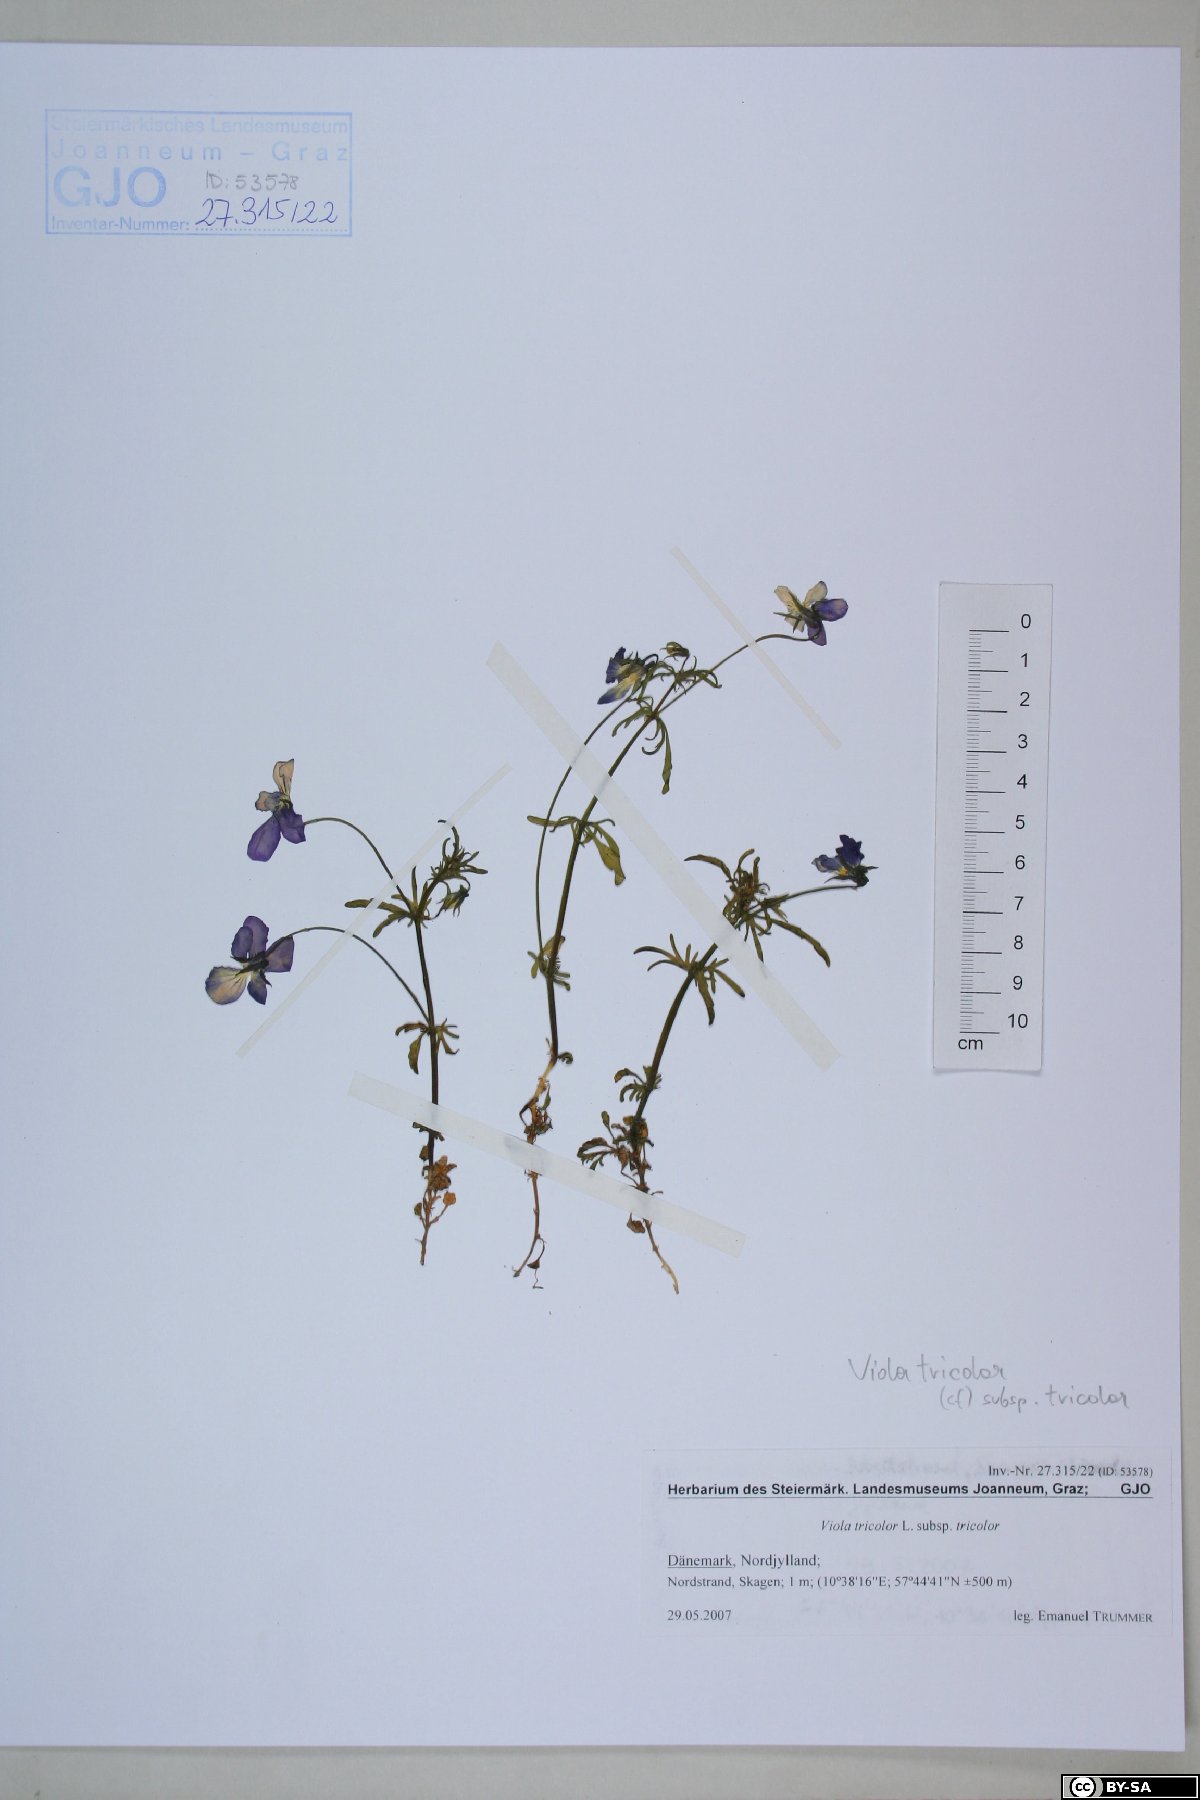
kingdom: Plantae
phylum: Tracheophyta
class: Magnoliopsida
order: Malpighiales
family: Violaceae
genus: Viola
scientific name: Viola tricolor
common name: Pansy
